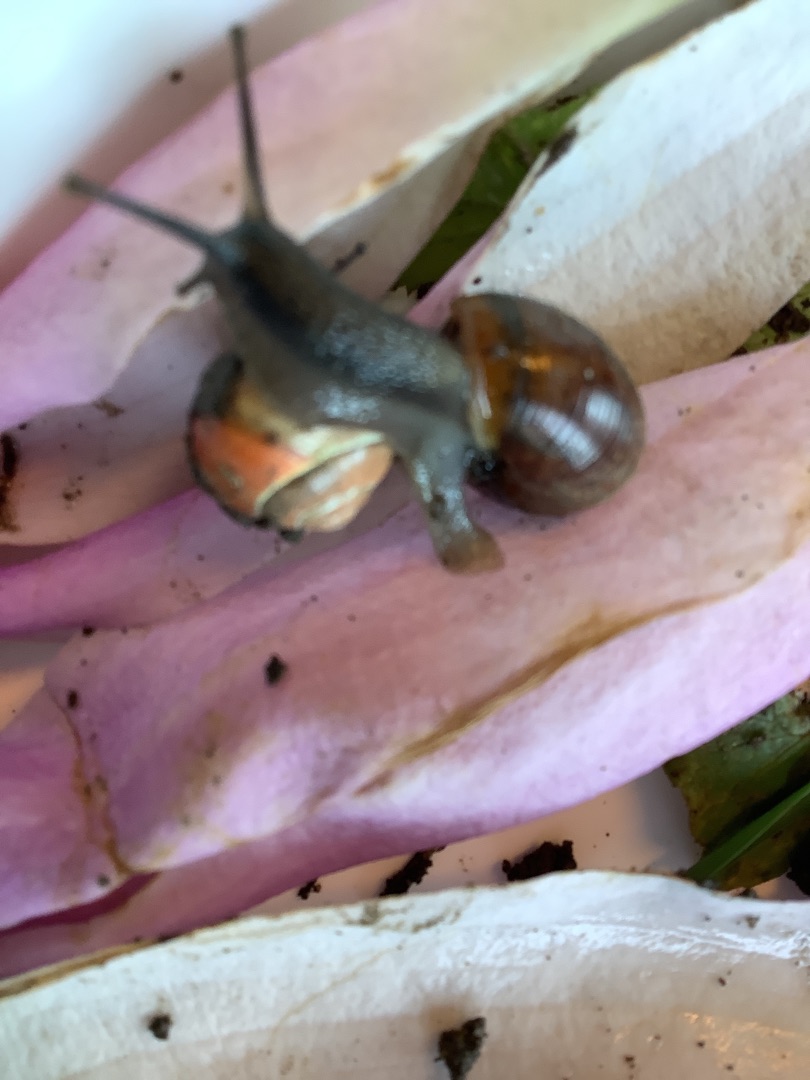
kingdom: Animalia
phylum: Mollusca
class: Gastropoda
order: Stylommatophora
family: Helicidae
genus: Cepaea
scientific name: Cepaea hortensis
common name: Havesnegl
